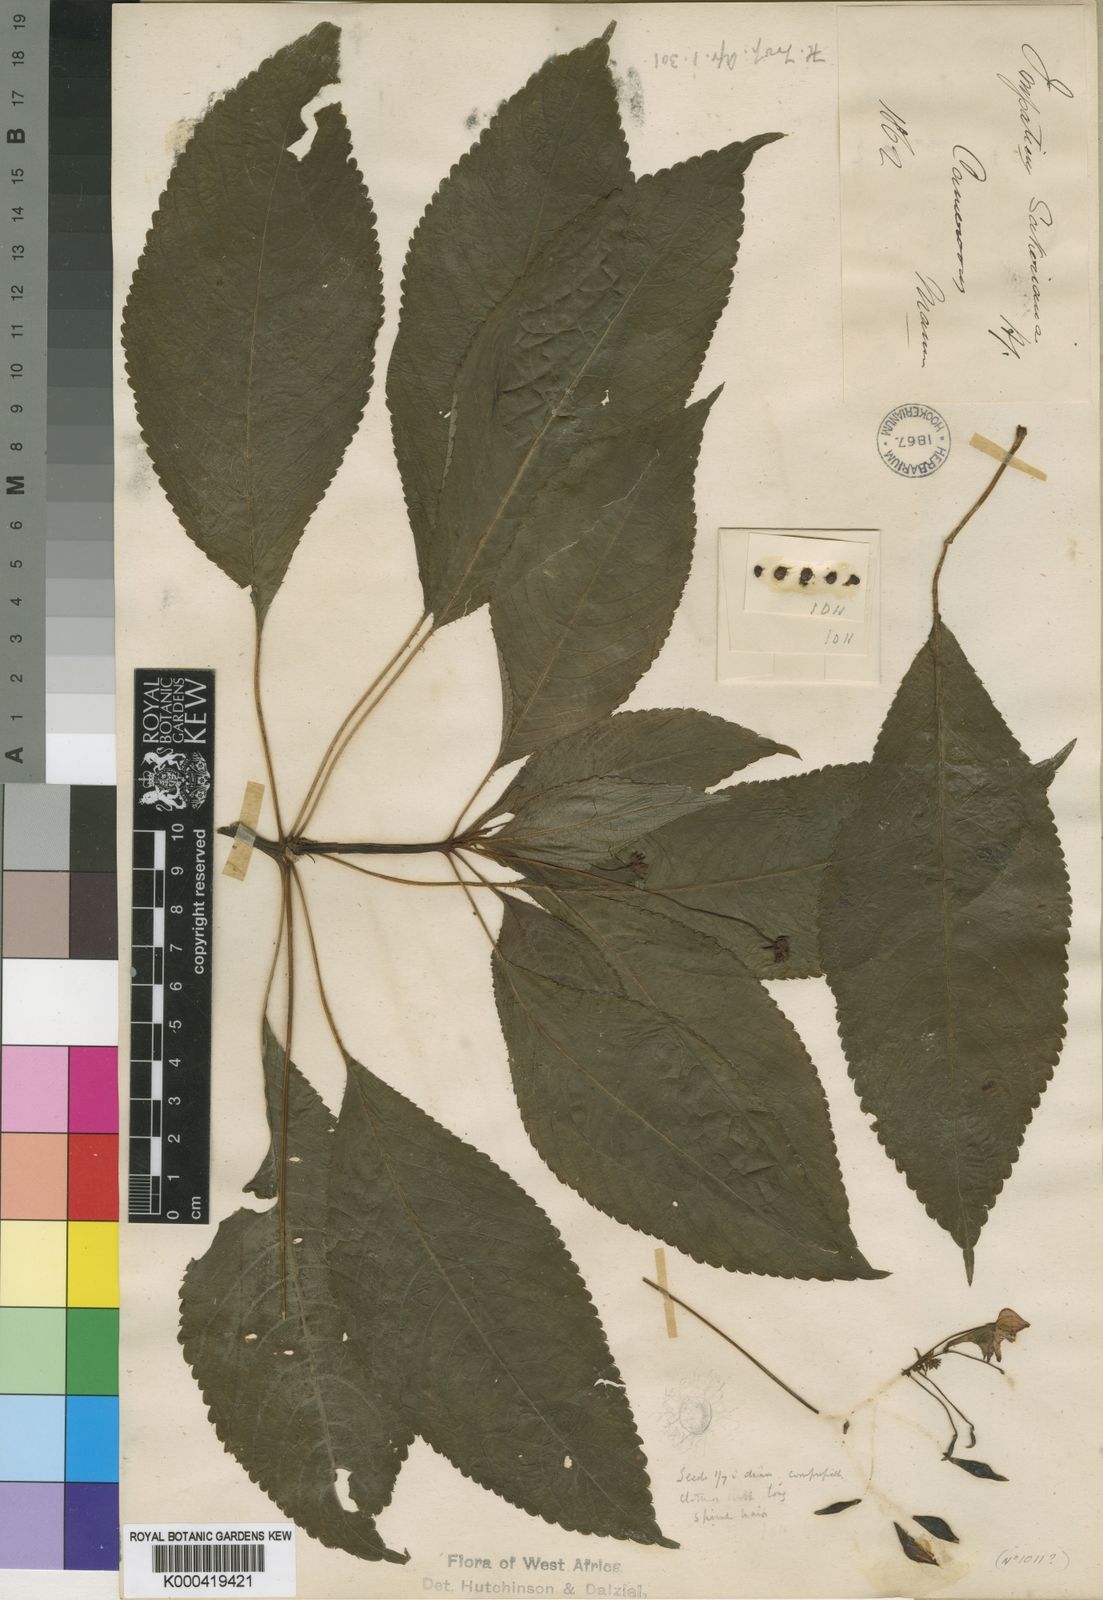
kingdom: Plantae
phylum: Tracheophyta
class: Magnoliopsida
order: Ericales
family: Balsaminaceae
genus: Impatiens
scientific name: Impatiens sakeriana
